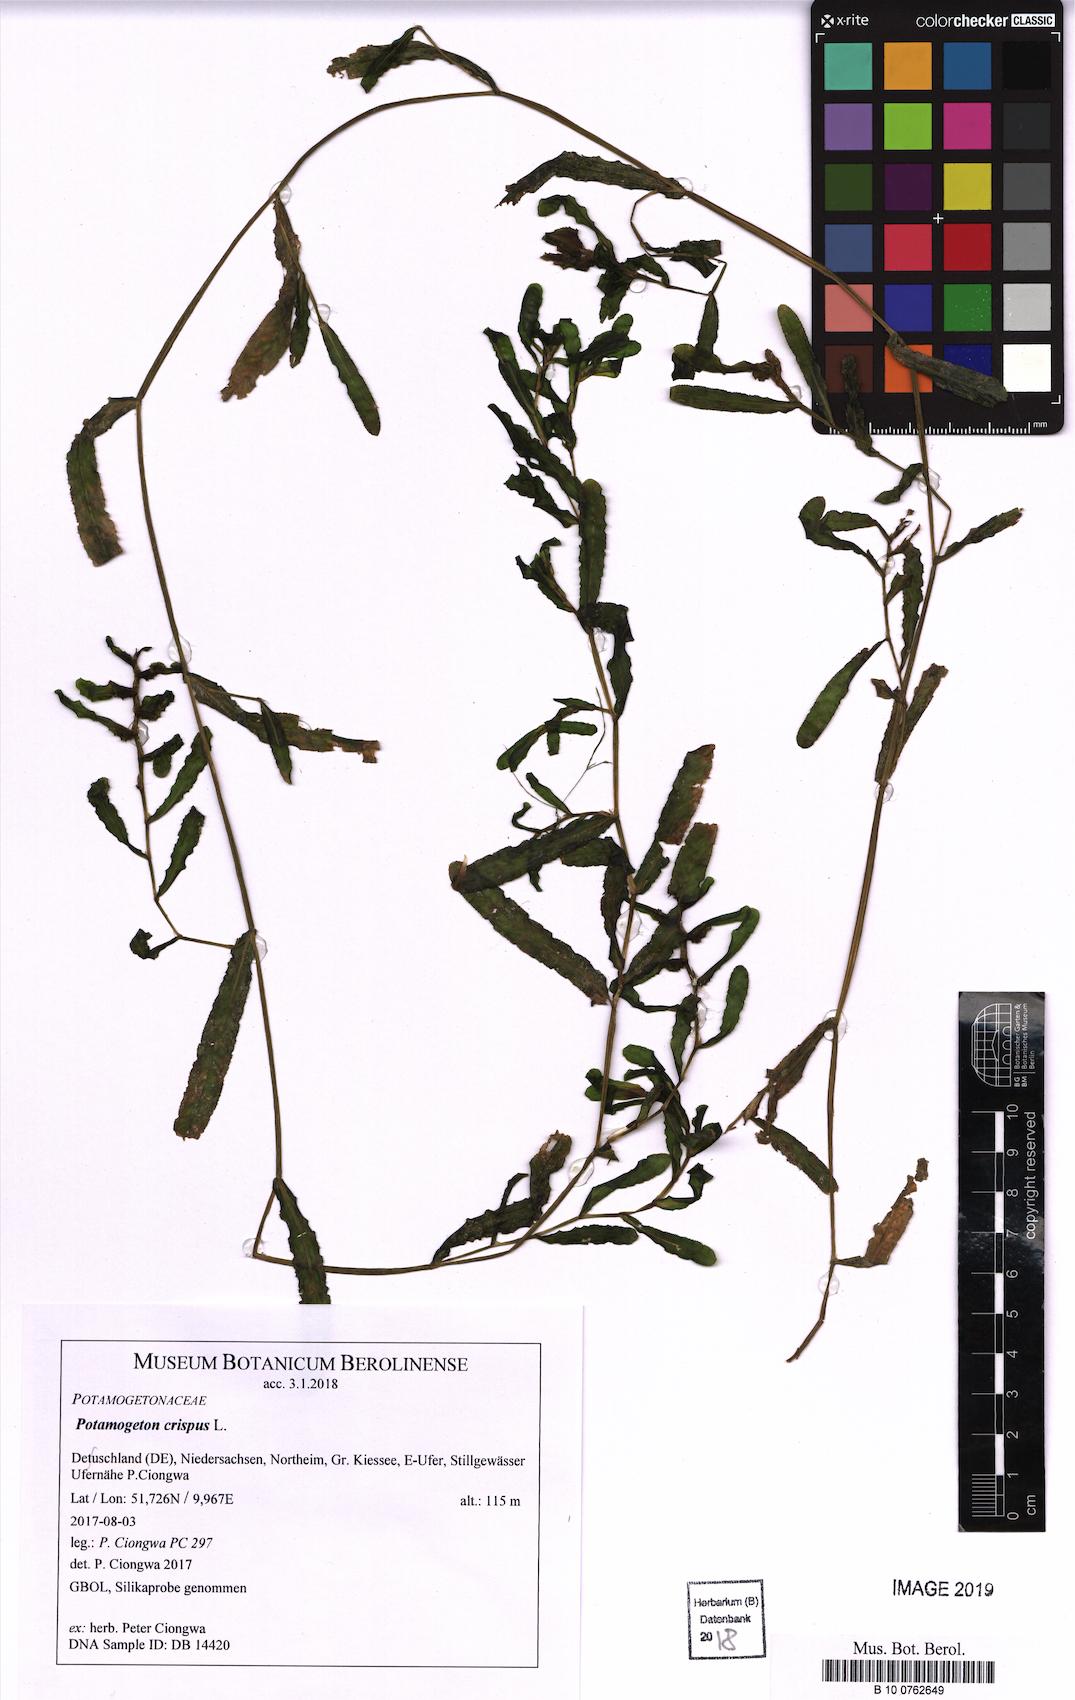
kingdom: Plantae
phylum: Tracheophyta
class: Liliopsida
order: Alismatales
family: Potamogetonaceae
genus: Potamogeton
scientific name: Potamogeton crispus
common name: Curled pondweed
